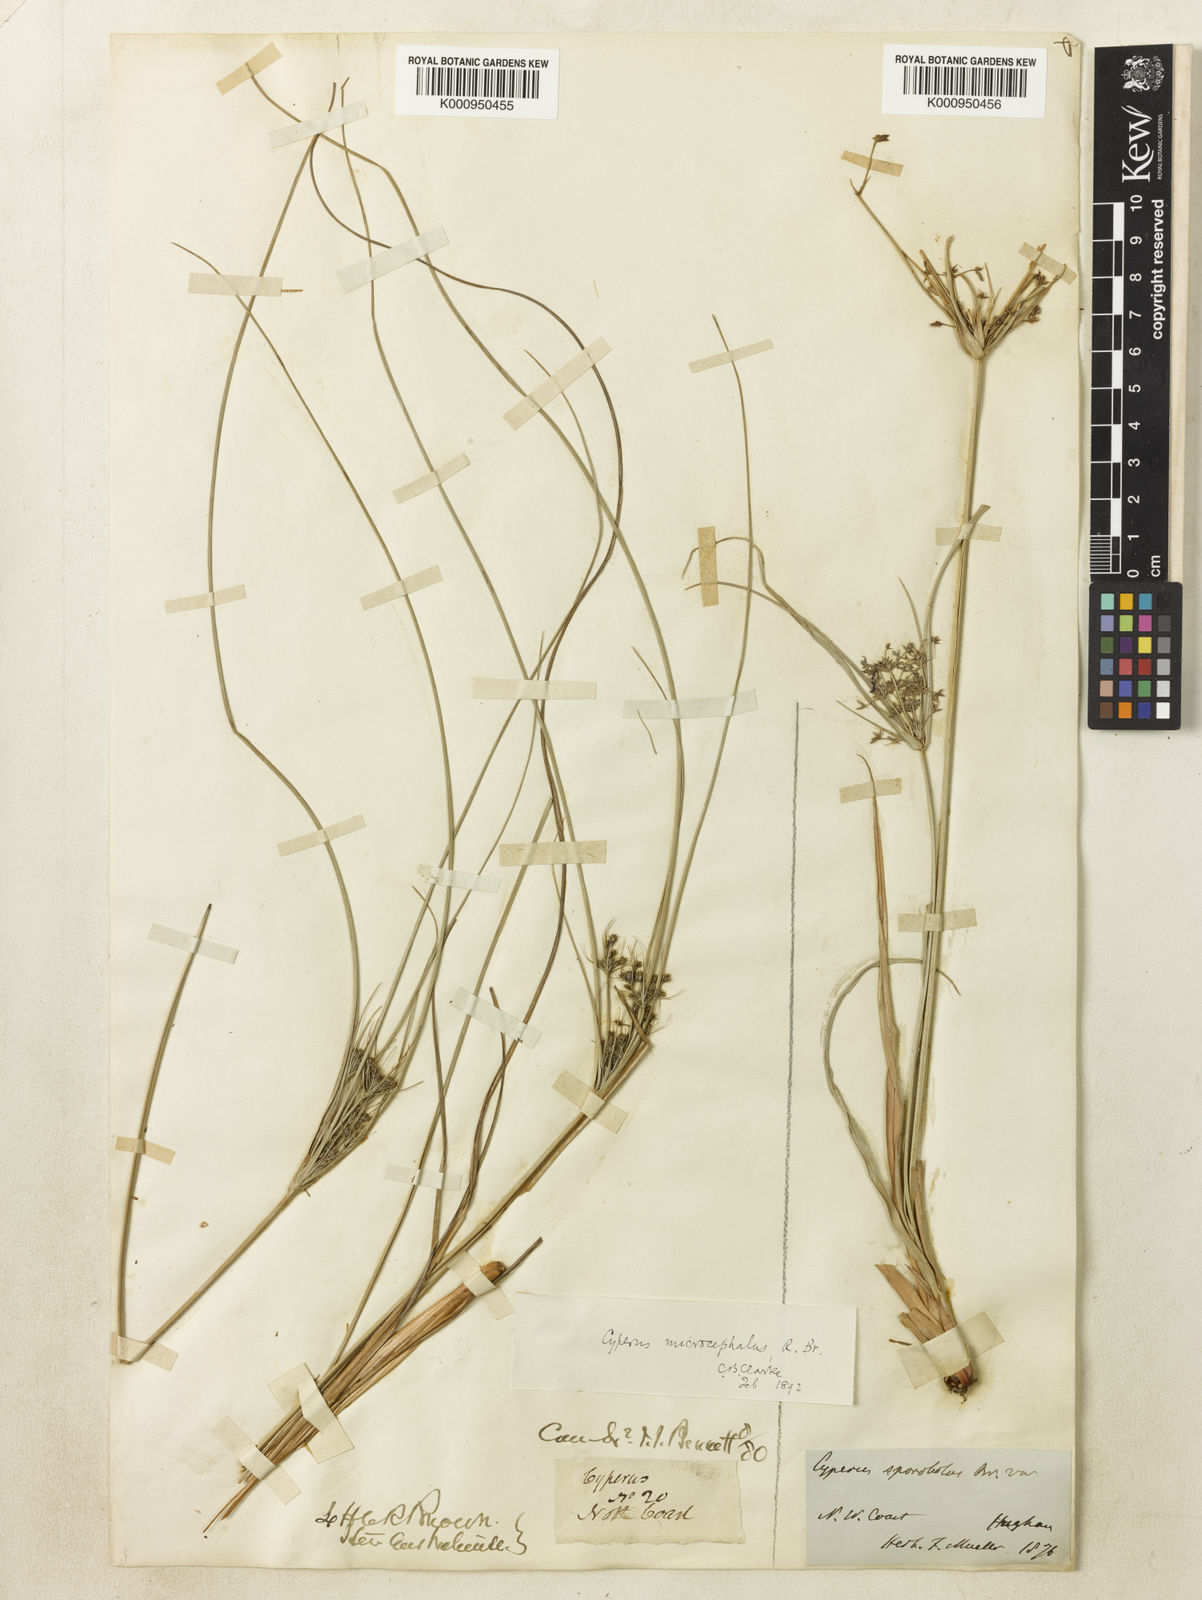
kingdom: Plantae
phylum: Tracheophyta
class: Liliopsida
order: Poales
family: Cyperaceae
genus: Cyperus
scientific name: Cyperus sporobolus
